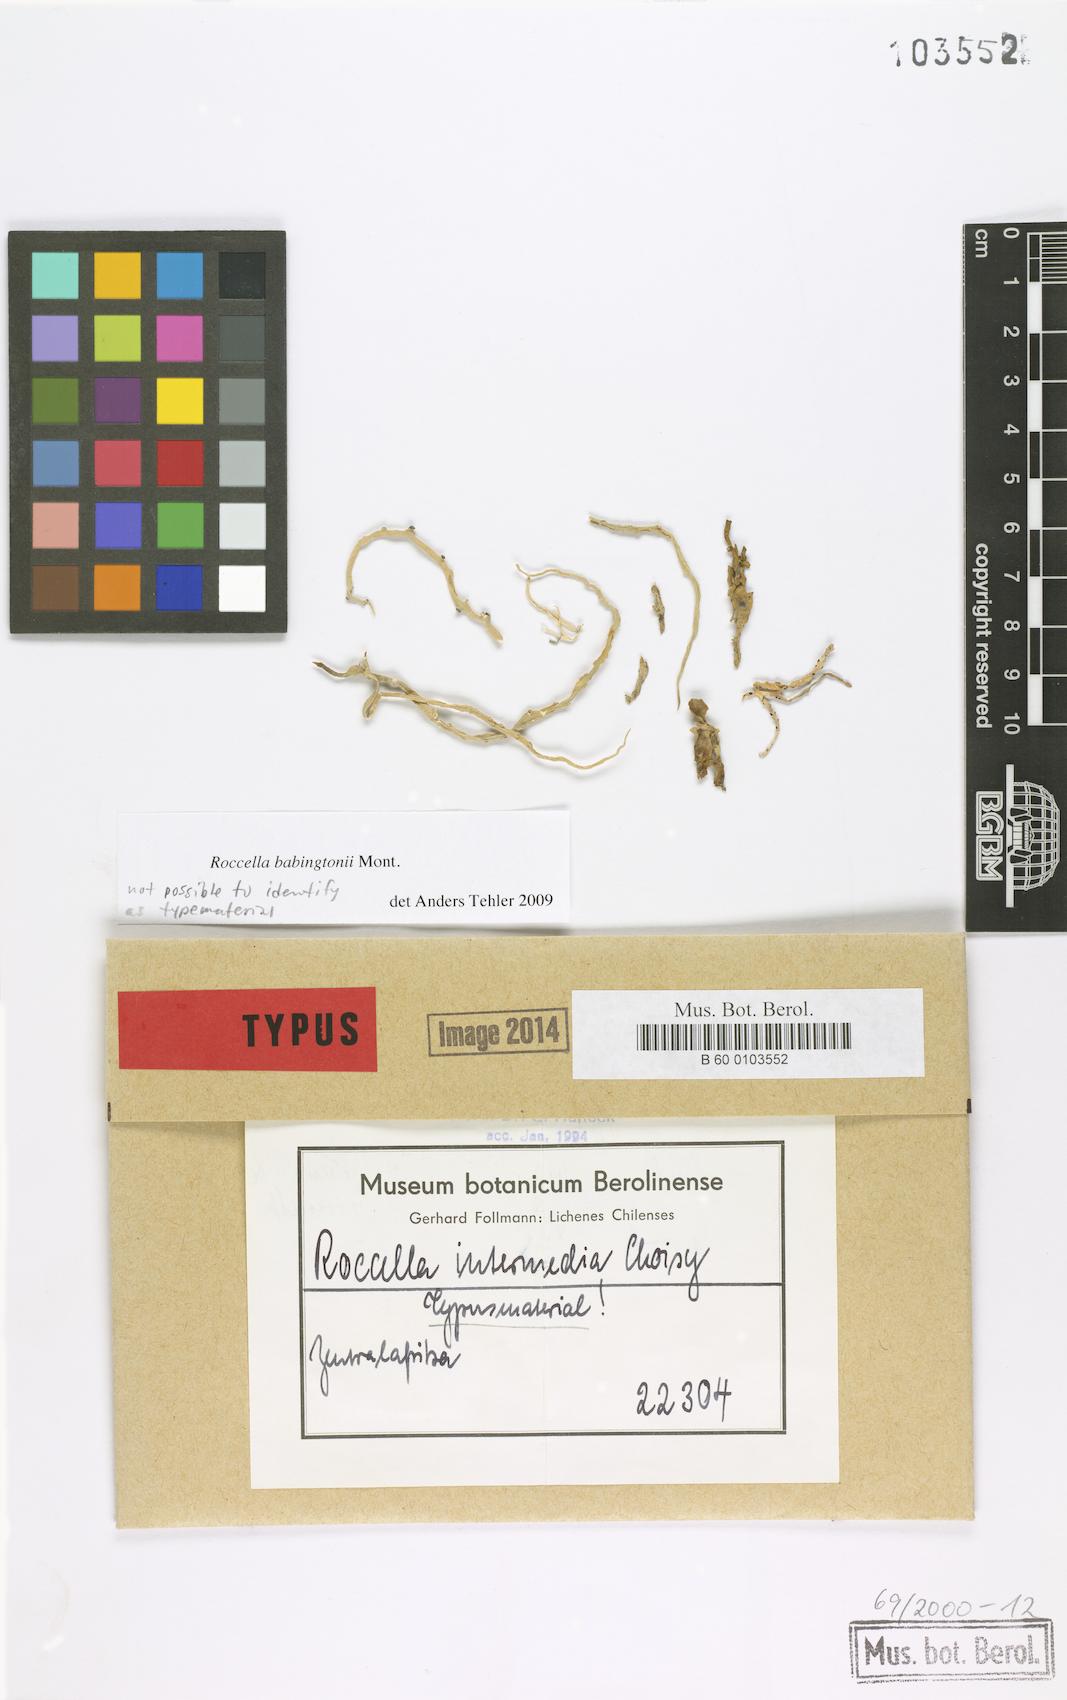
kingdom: Fungi
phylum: Ascomycota
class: Arthoniomycetes
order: Arthoniales
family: Roccellaceae
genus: Roccella
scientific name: Roccella
